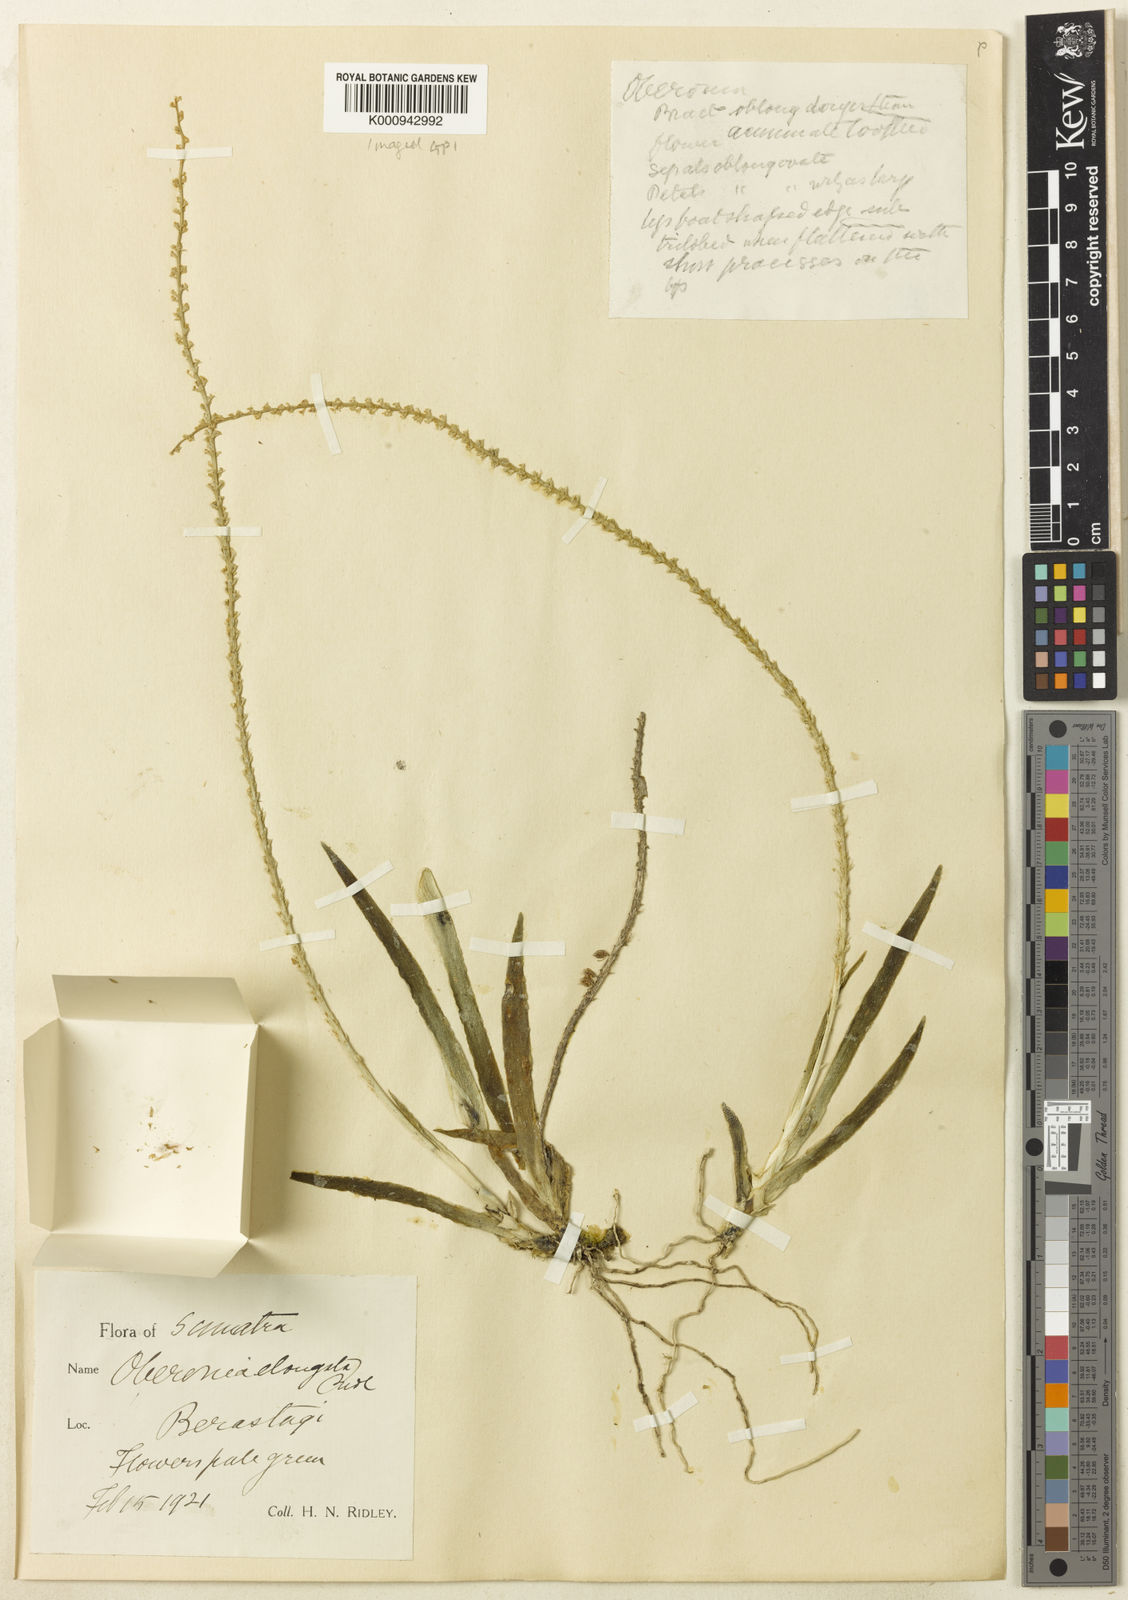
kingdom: Plantae
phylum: Tracheophyta
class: Liliopsida
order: Asparagales
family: Orchidaceae
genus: Oberonia
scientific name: Oberonia elongata
